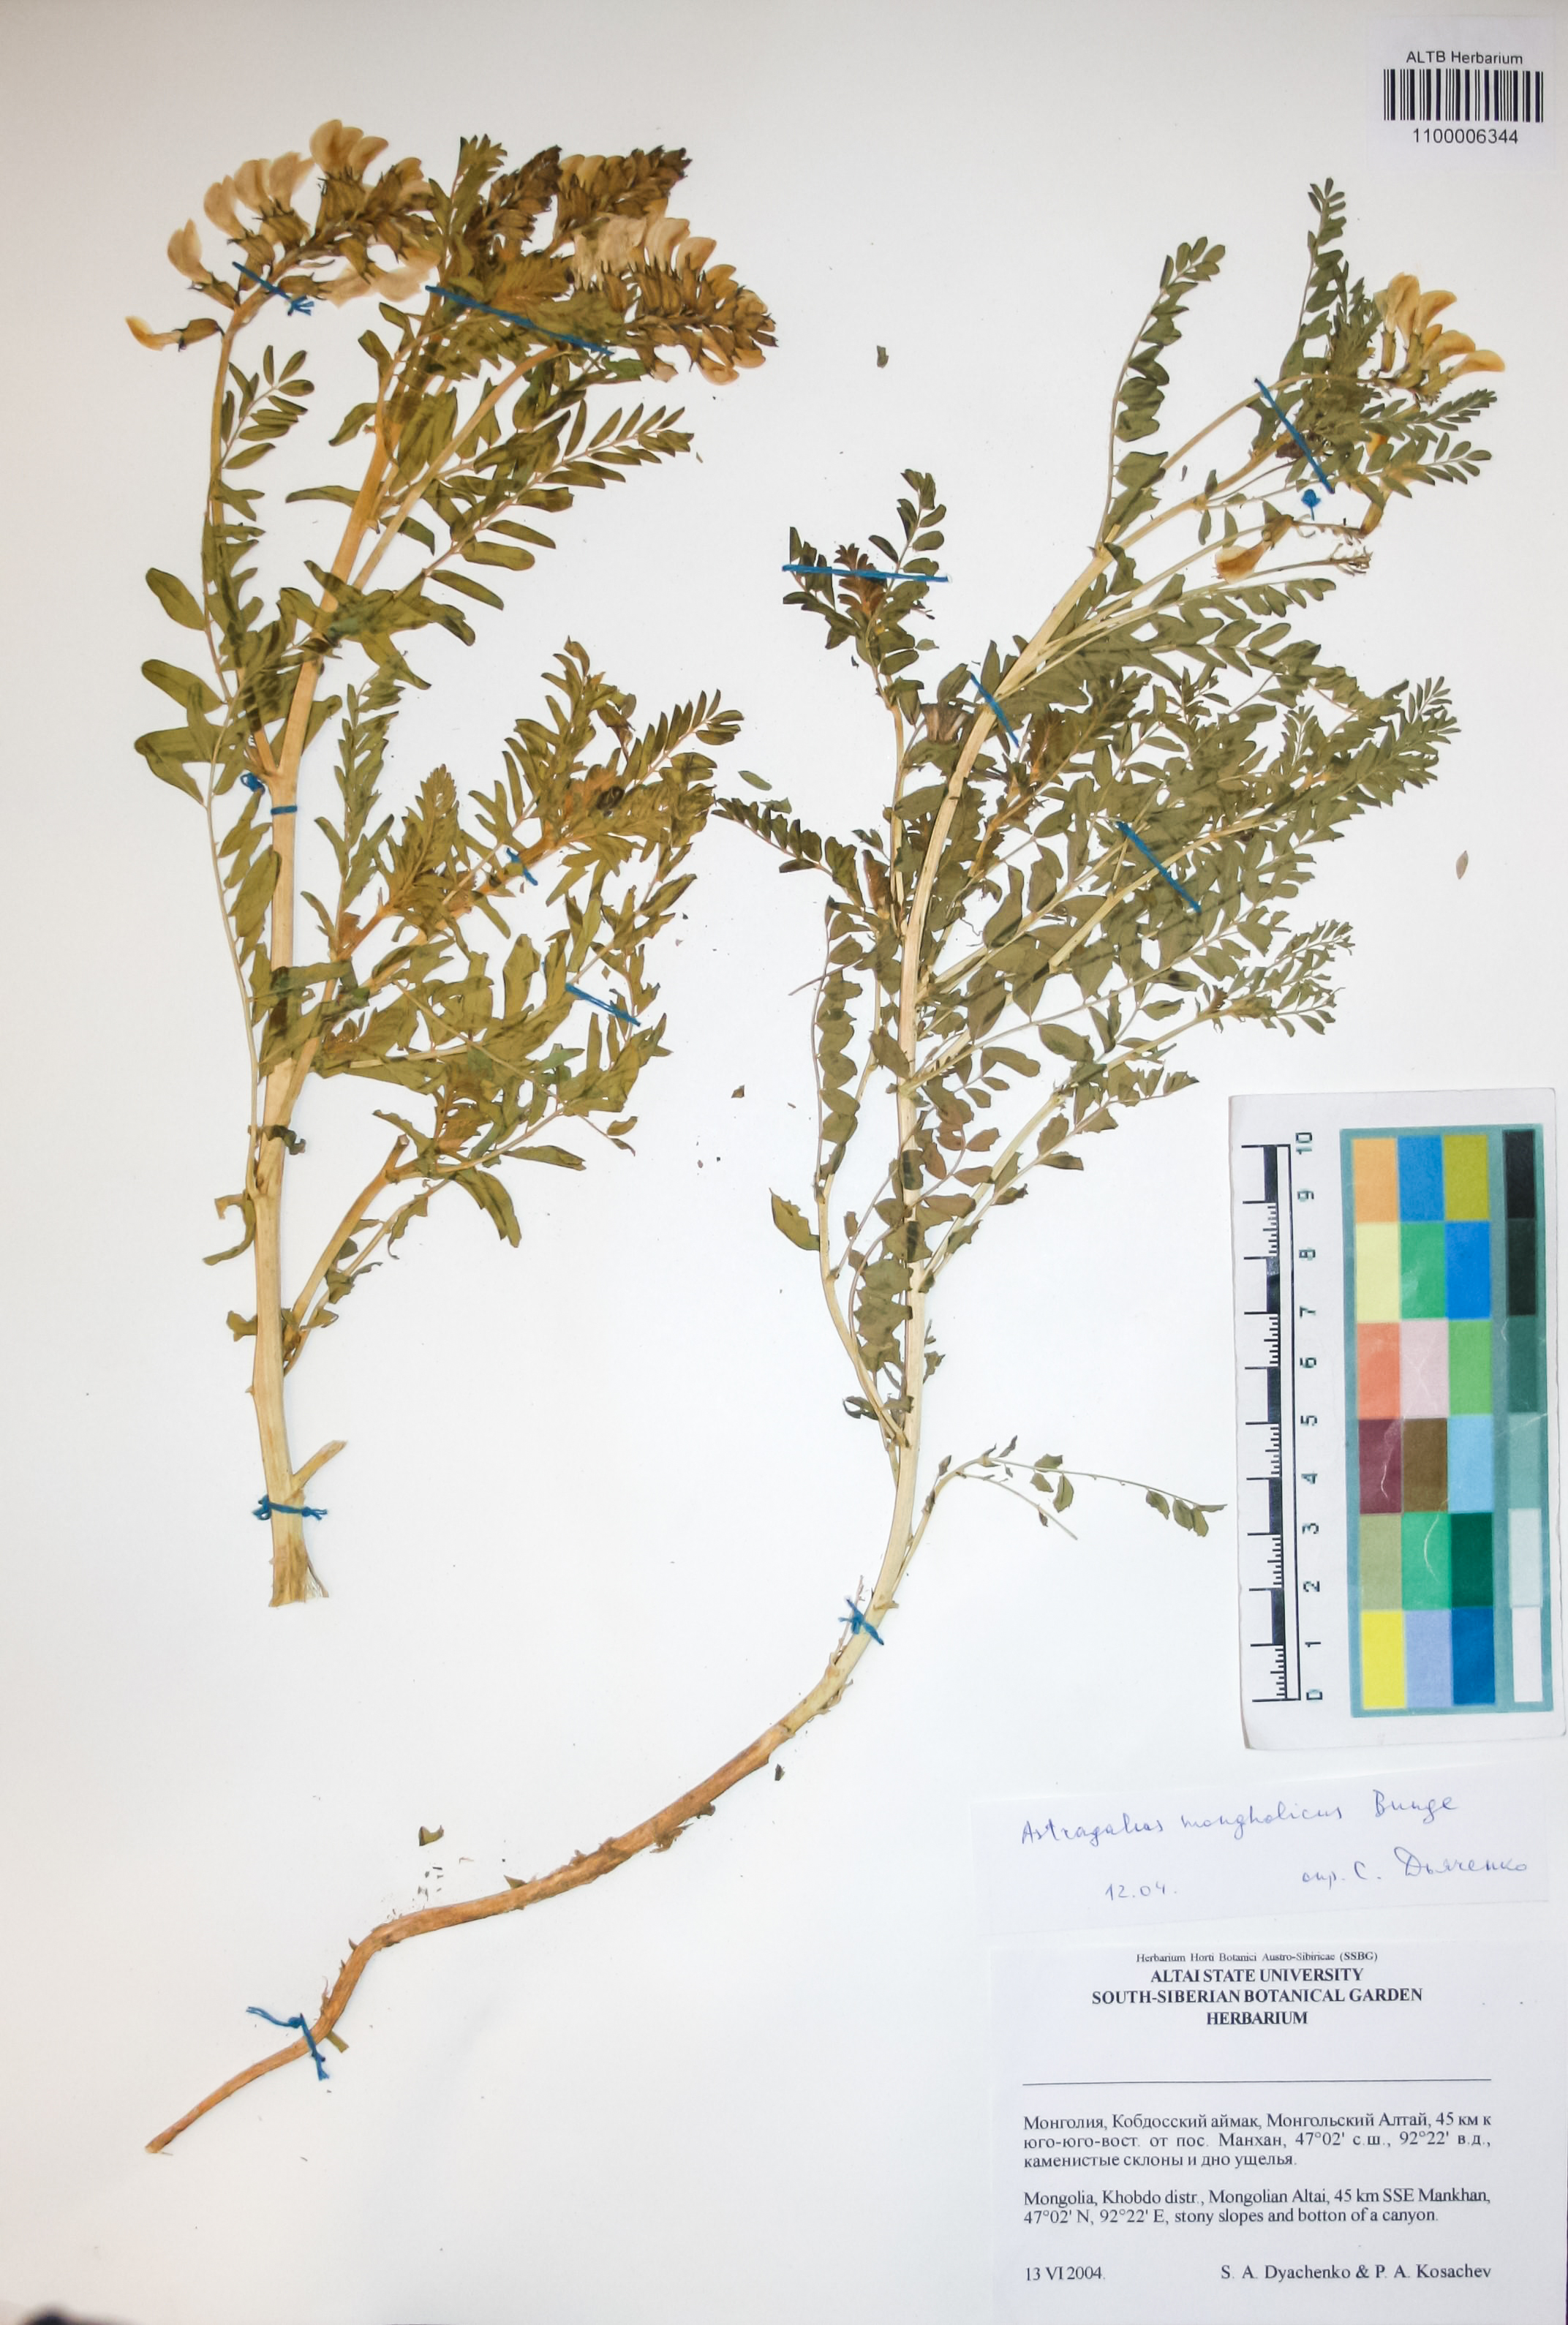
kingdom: Plantae
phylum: Tracheophyta
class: Magnoliopsida
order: Fabales
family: Fabaceae
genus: Astragalus
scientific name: Astragalus mongolicus
